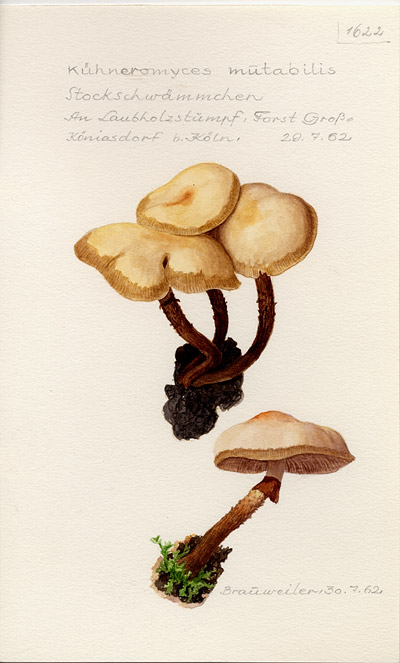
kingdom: Fungi
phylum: Basidiomycota
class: Agaricomycetes
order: Agaricales
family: Strophariaceae
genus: Kuehneromyces
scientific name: Kuehneromyces mutabilis
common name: Sheathed woodtuft
